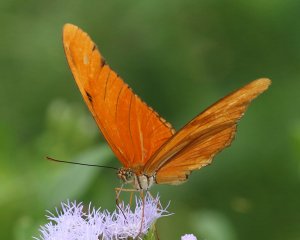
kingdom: Animalia
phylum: Arthropoda
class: Insecta
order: Lepidoptera
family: Nymphalidae
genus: Dryas
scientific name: Dryas iulia
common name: Julia
